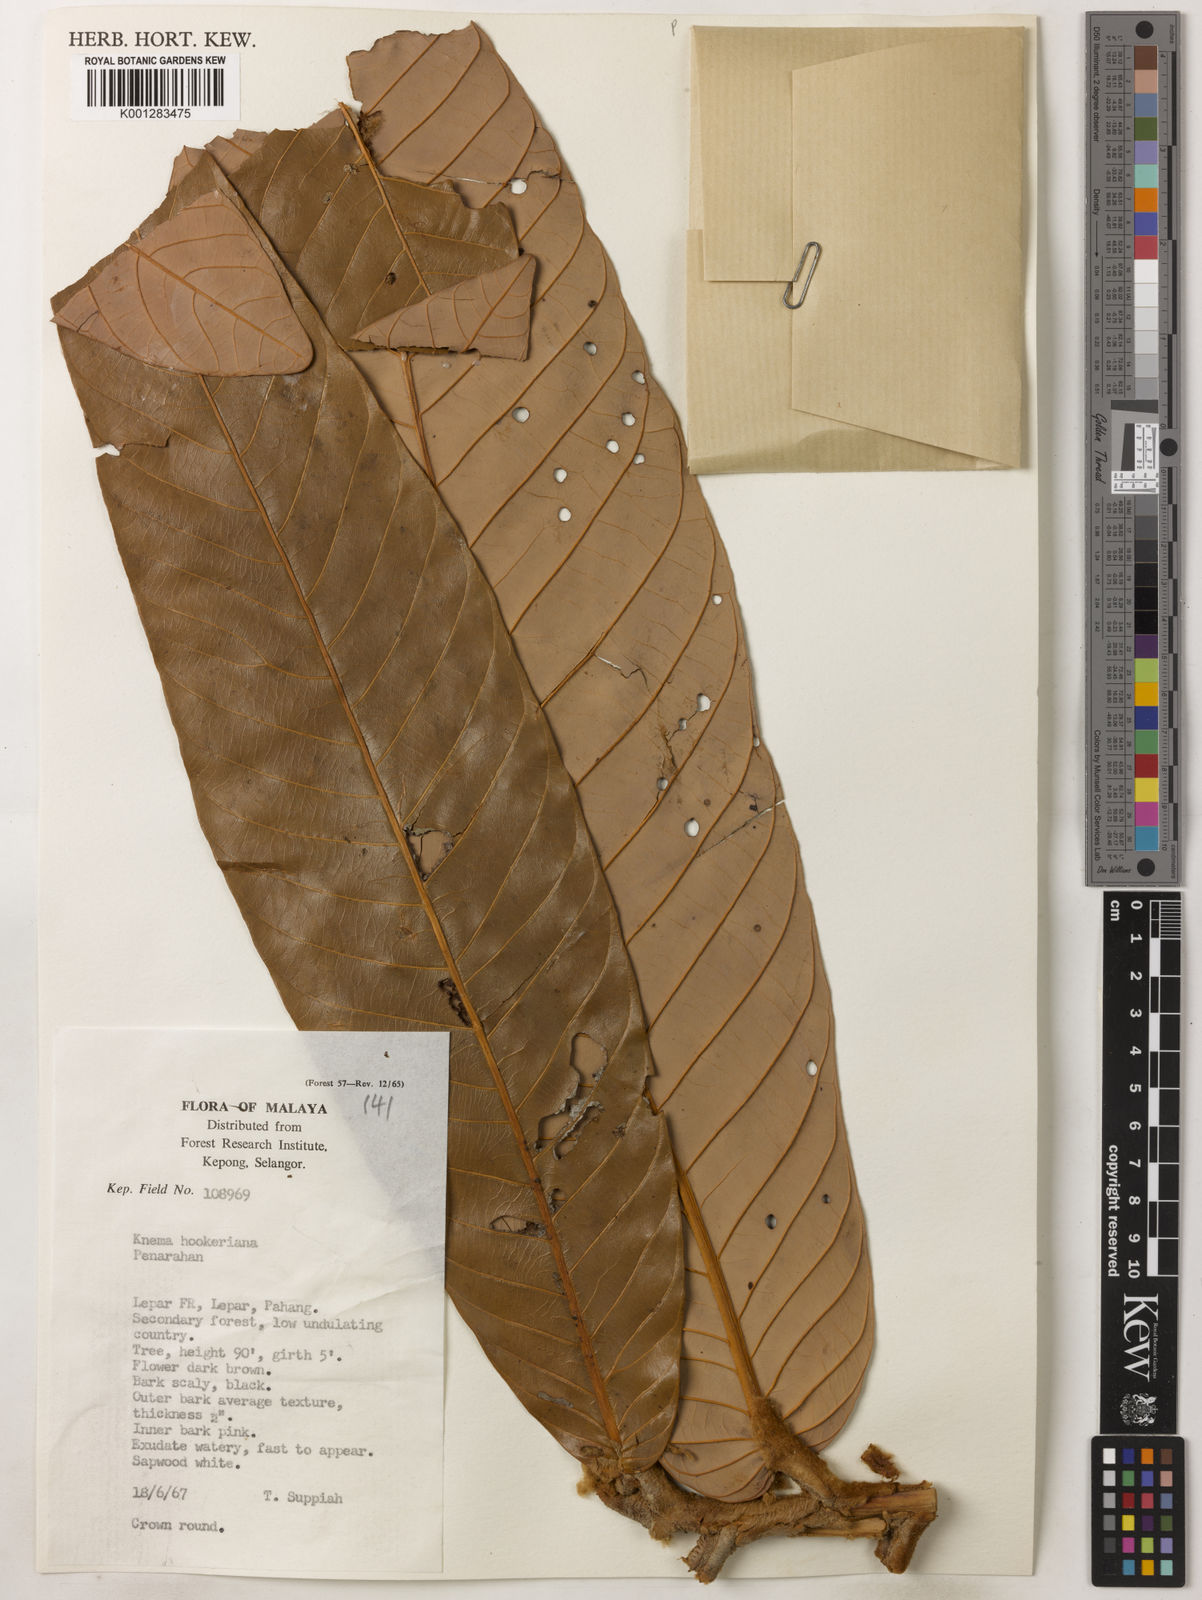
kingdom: Plantae
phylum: Tracheophyta
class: Magnoliopsida
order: Magnoliales
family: Myristicaceae
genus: Knema
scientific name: Knema hookeriana
